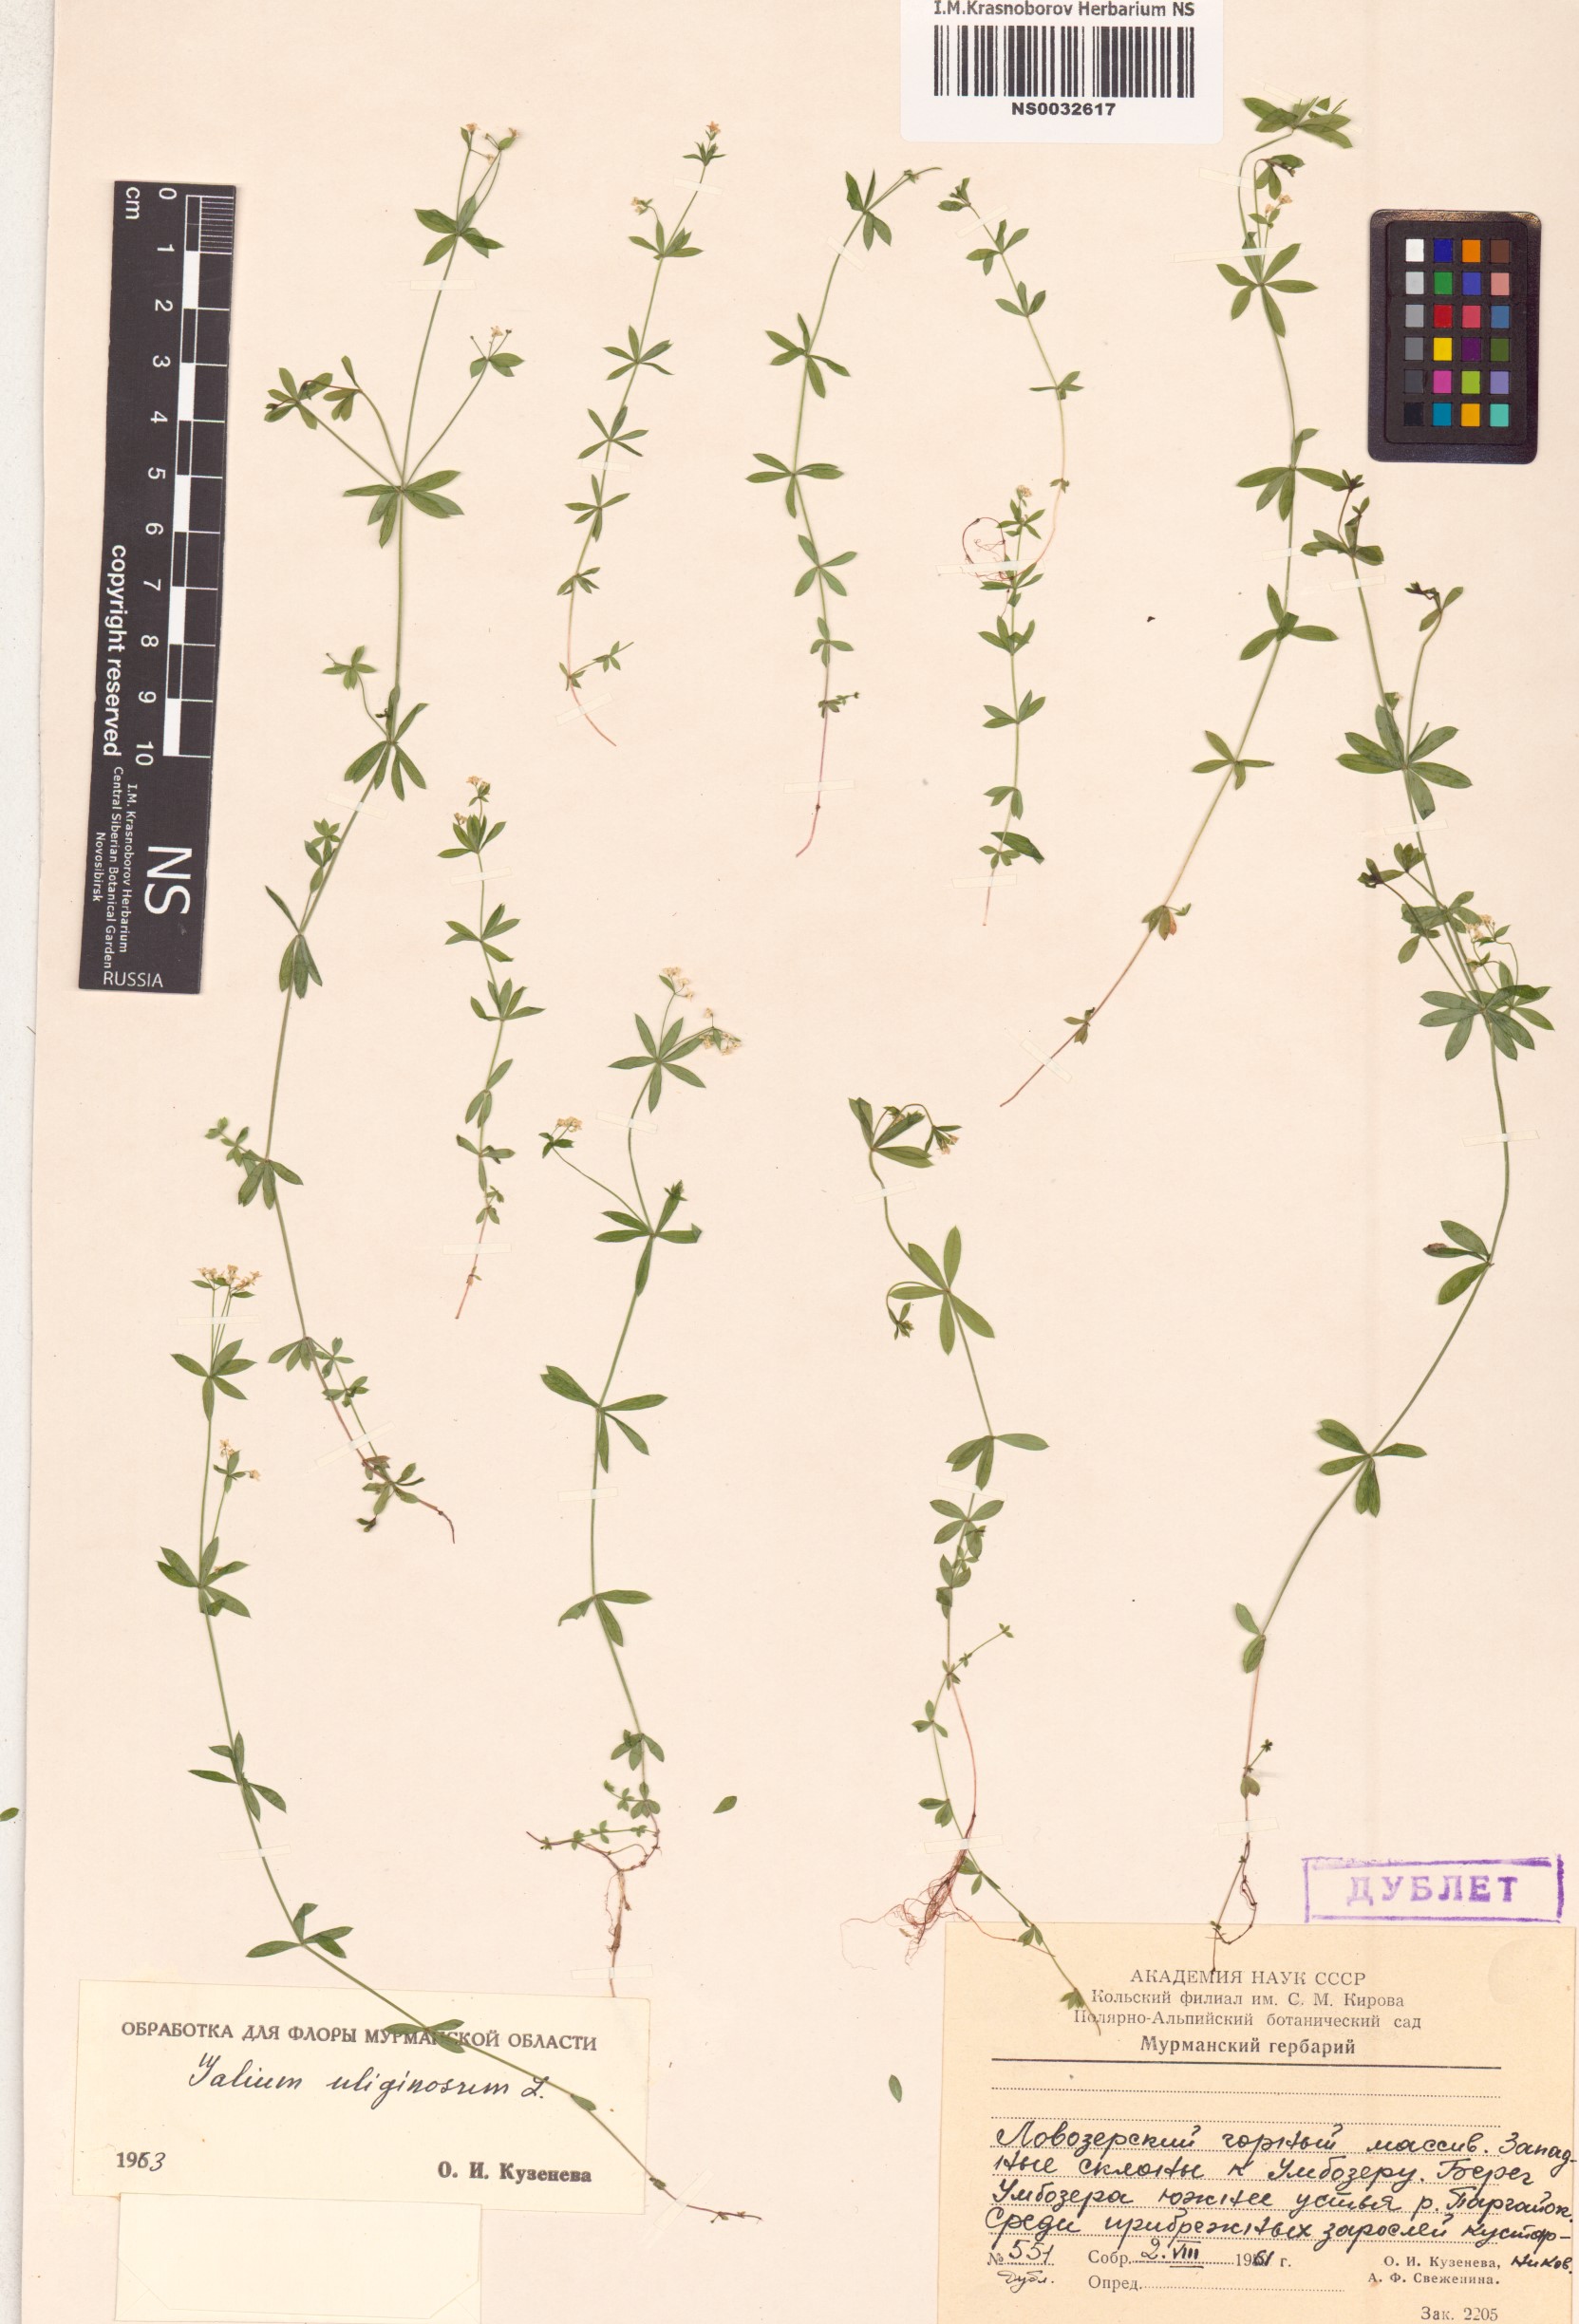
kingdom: Plantae
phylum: Tracheophyta
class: Magnoliopsida
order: Gentianales
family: Rubiaceae
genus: Galium
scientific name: Galium uliginosum
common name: Fen bedstraw
